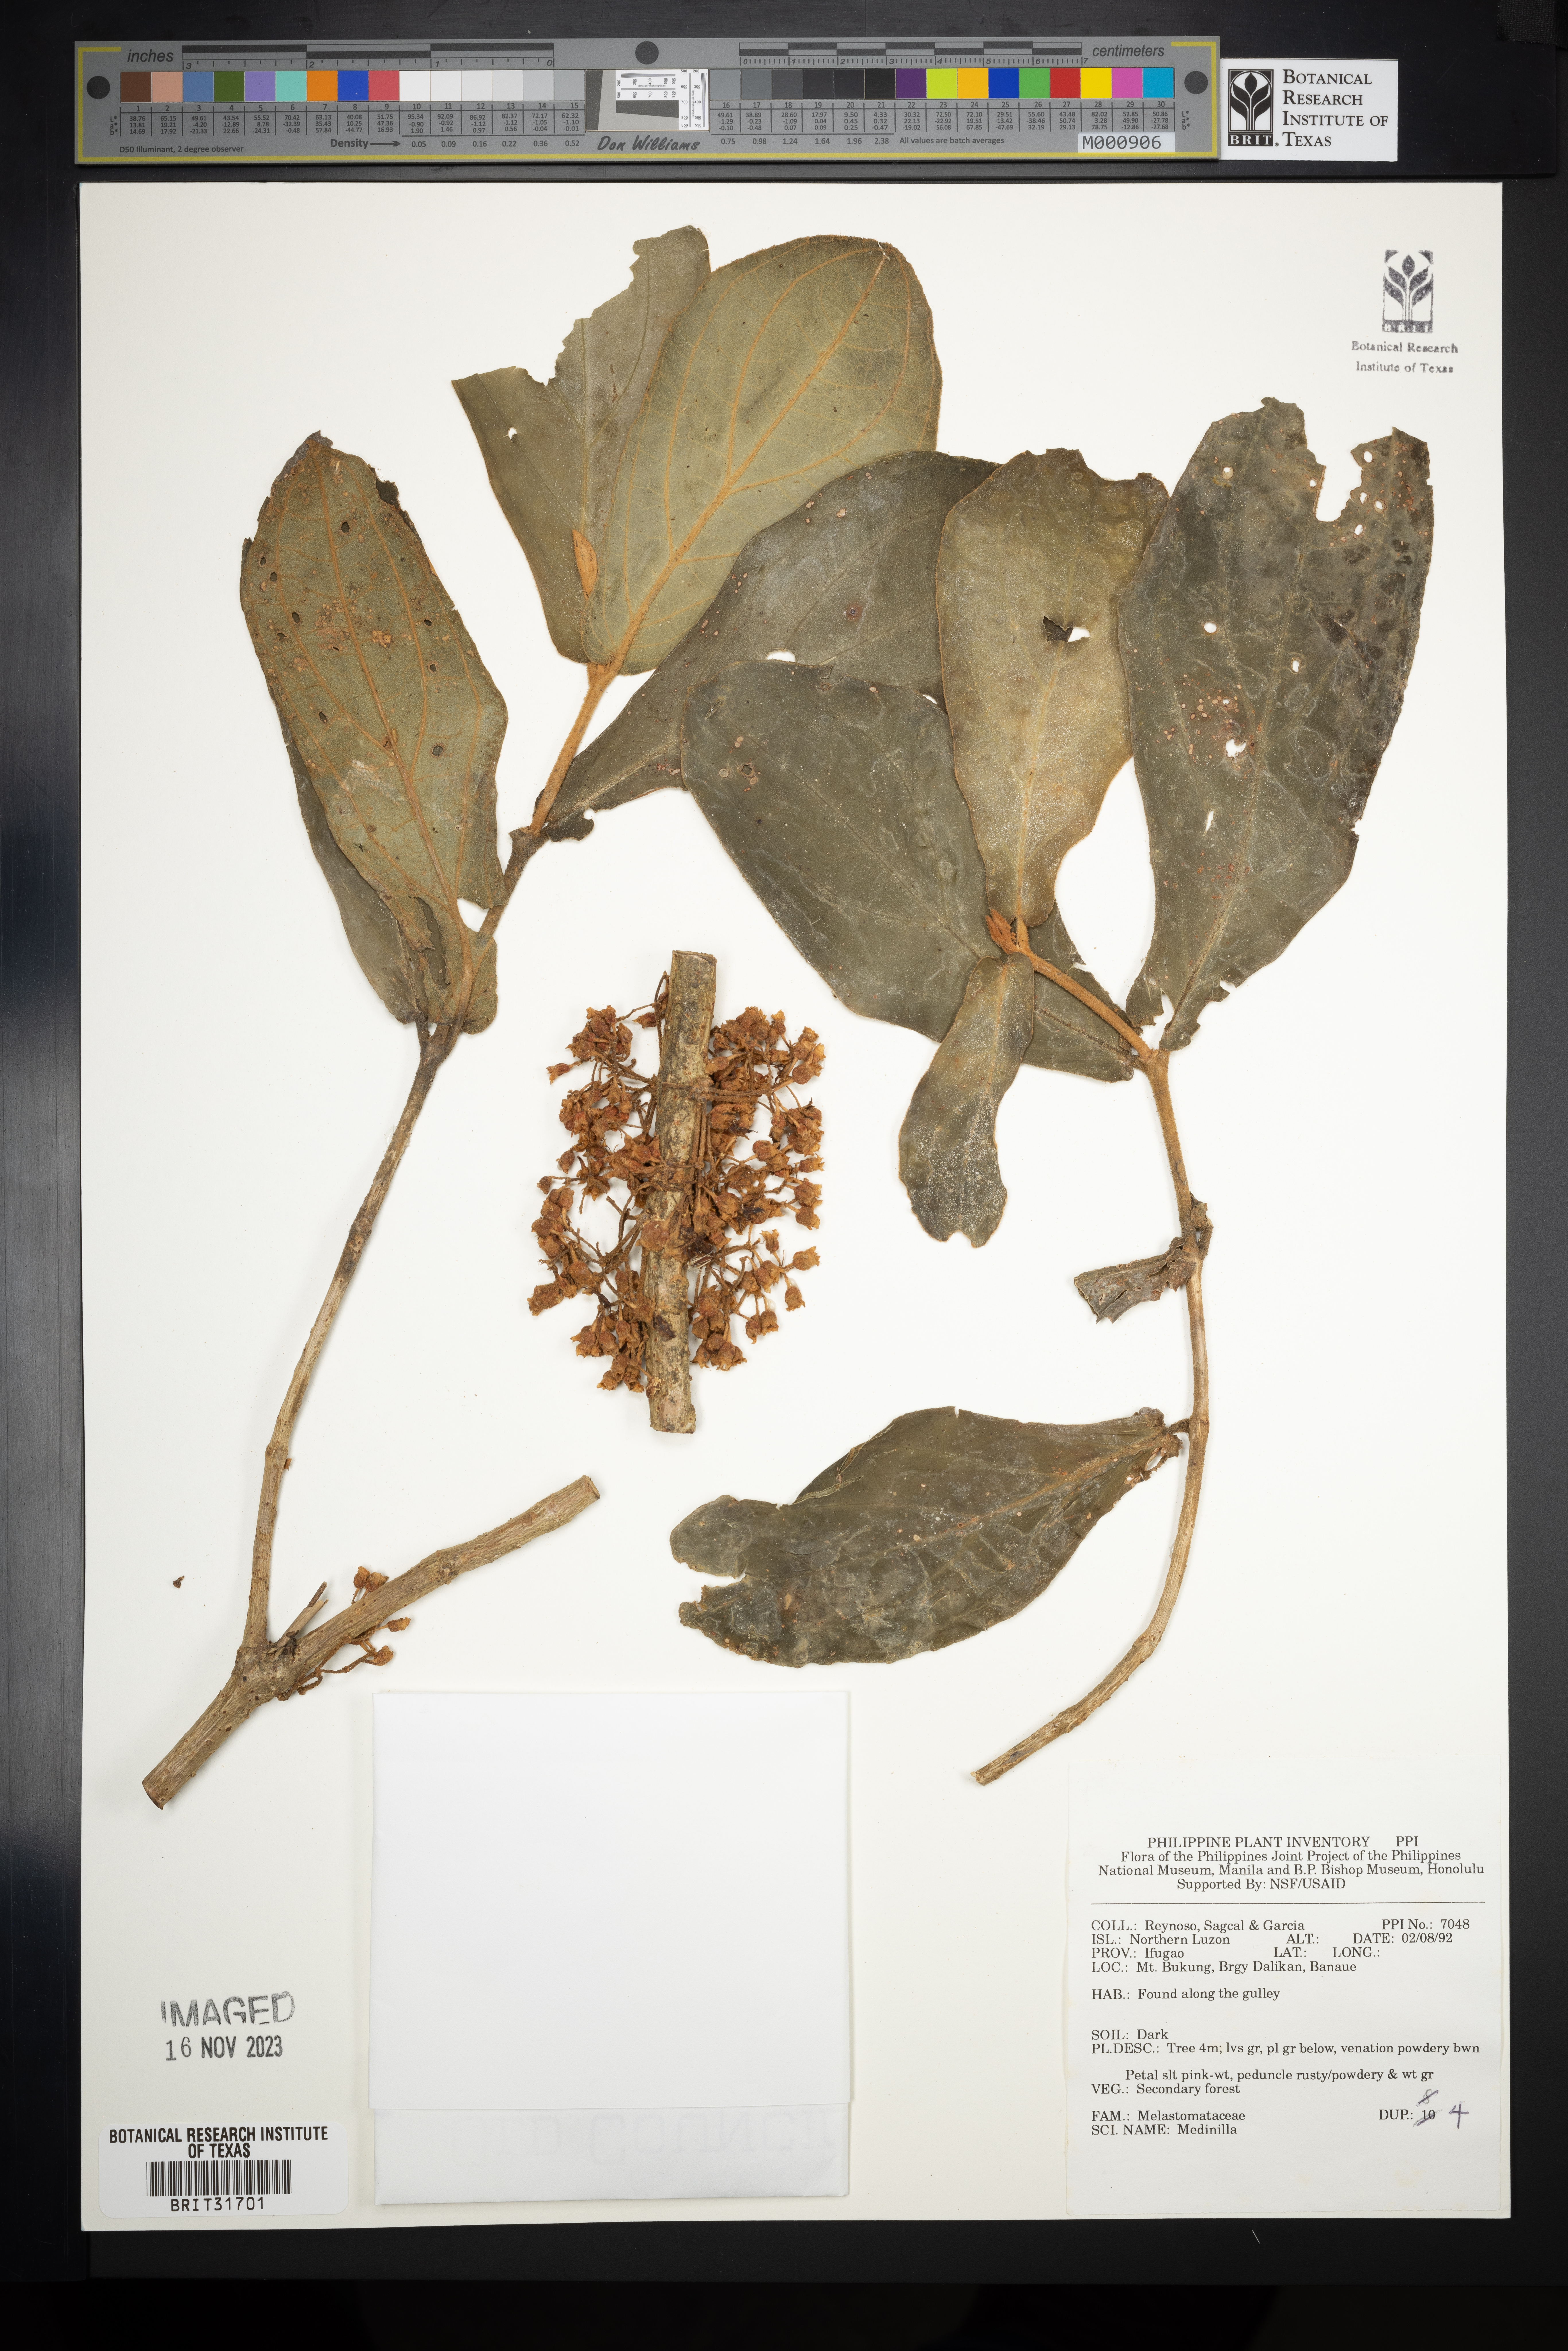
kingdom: Plantae
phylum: Tracheophyta
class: Magnoliopsida
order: Myrtales
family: Melastomataceae
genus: Medinilla
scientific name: Medinilla
